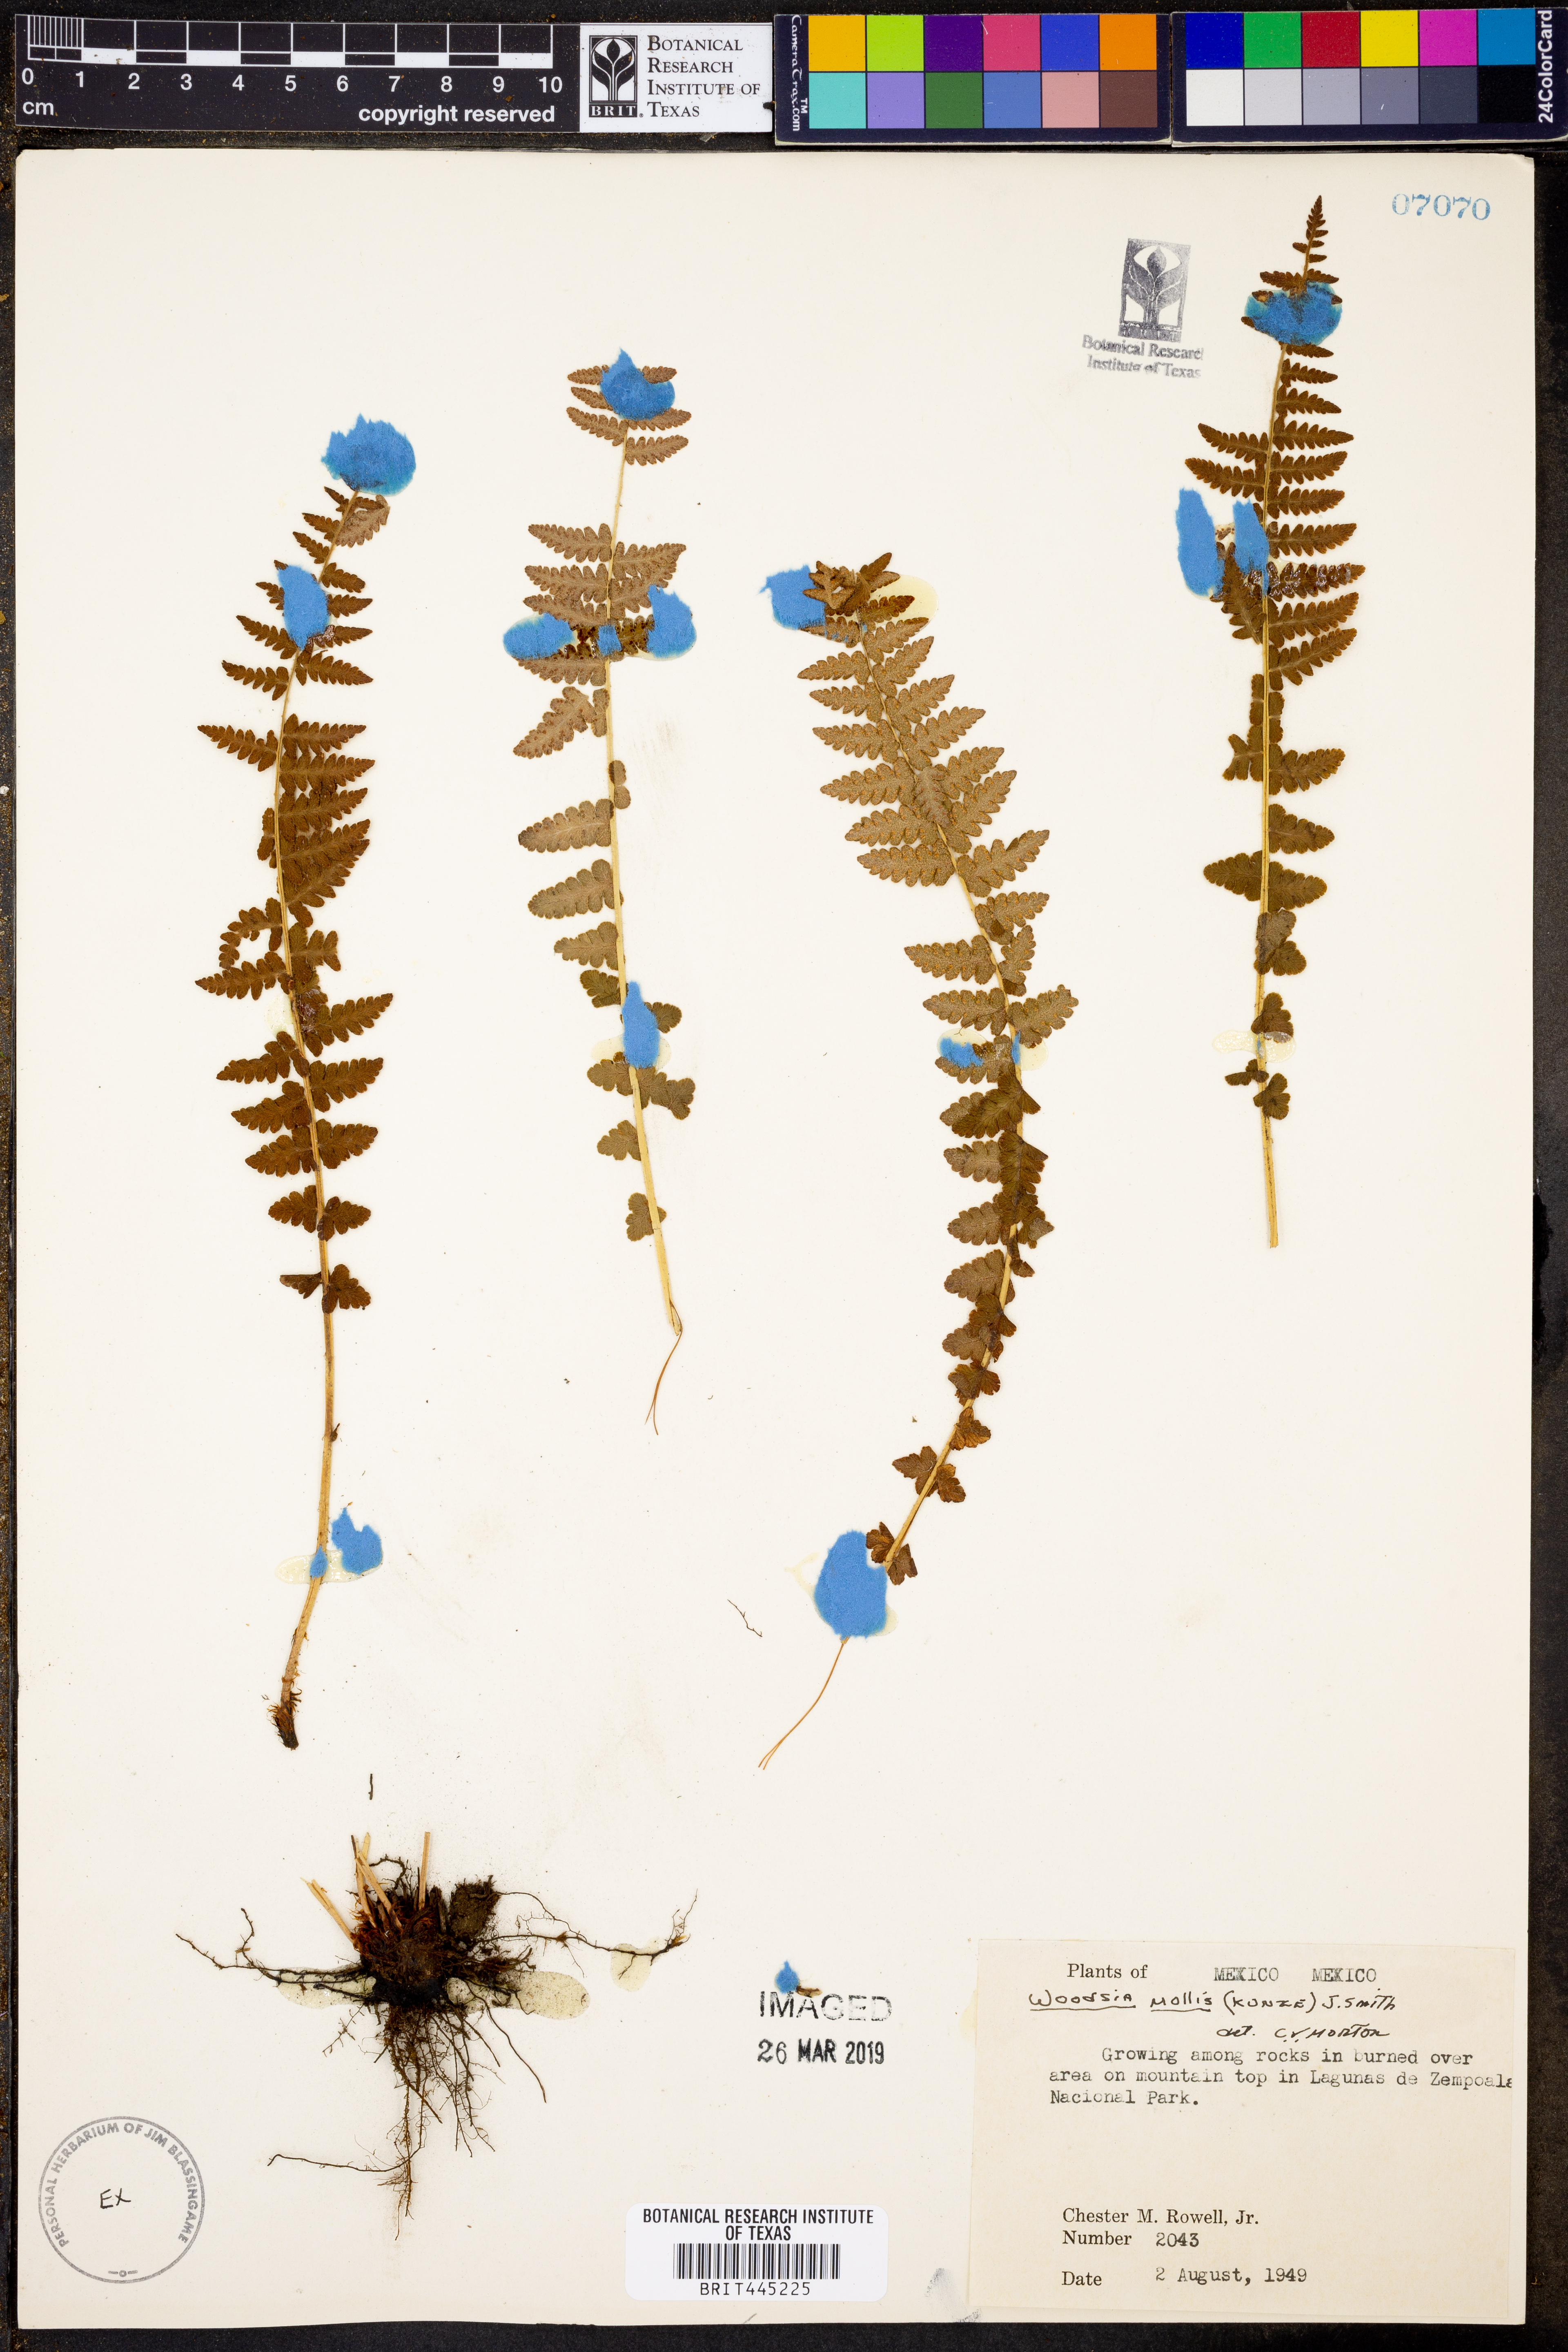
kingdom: Plantae
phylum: Tracheophyta
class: Polypodiopsida
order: Polypodiales
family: Woodsiaceae
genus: Physematium
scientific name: Physematium molle
